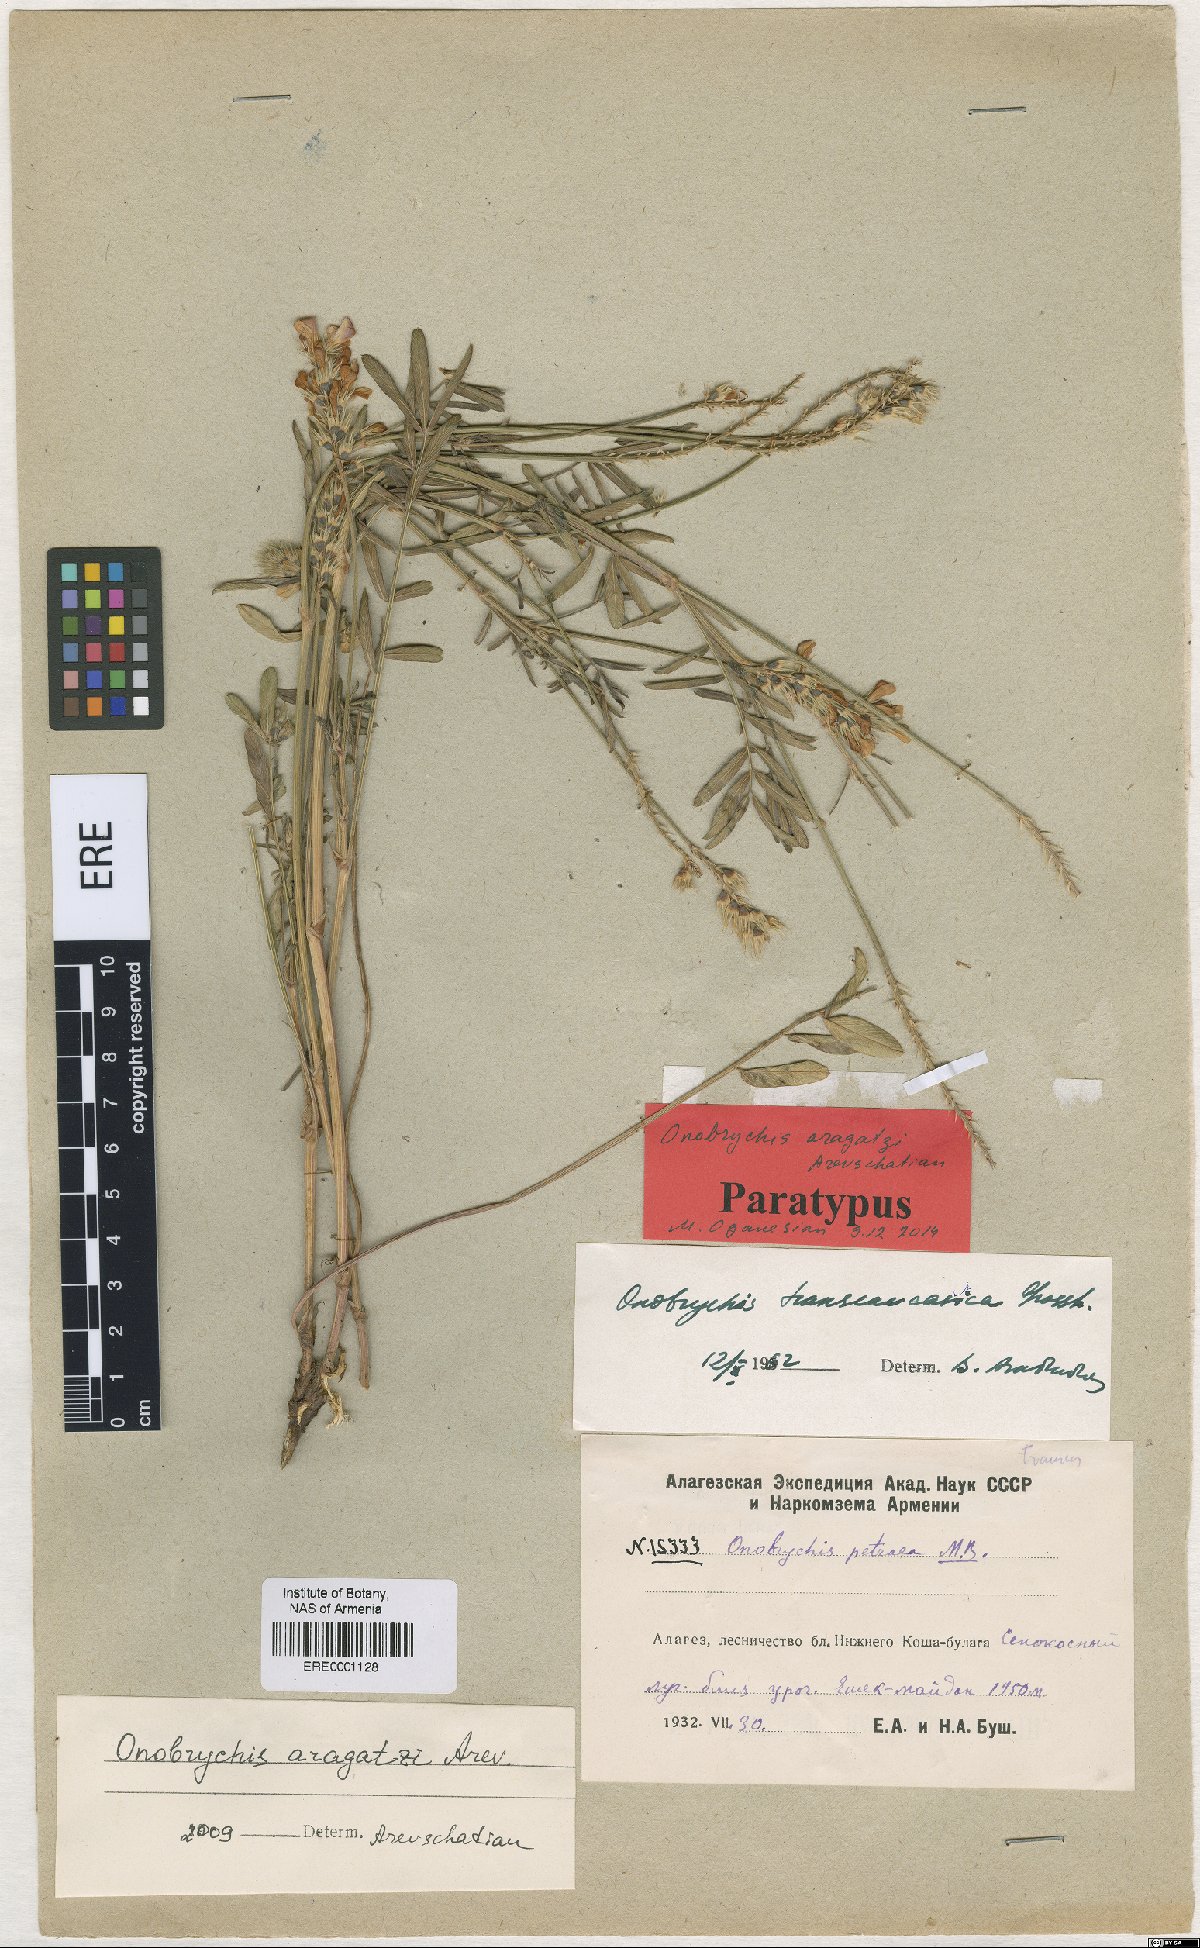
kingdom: Plantae
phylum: Tracheophyta
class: Magnoliopsida
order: Fabales
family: Fabaceae
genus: Onobrychis
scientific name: Onobrychis aragatzi
